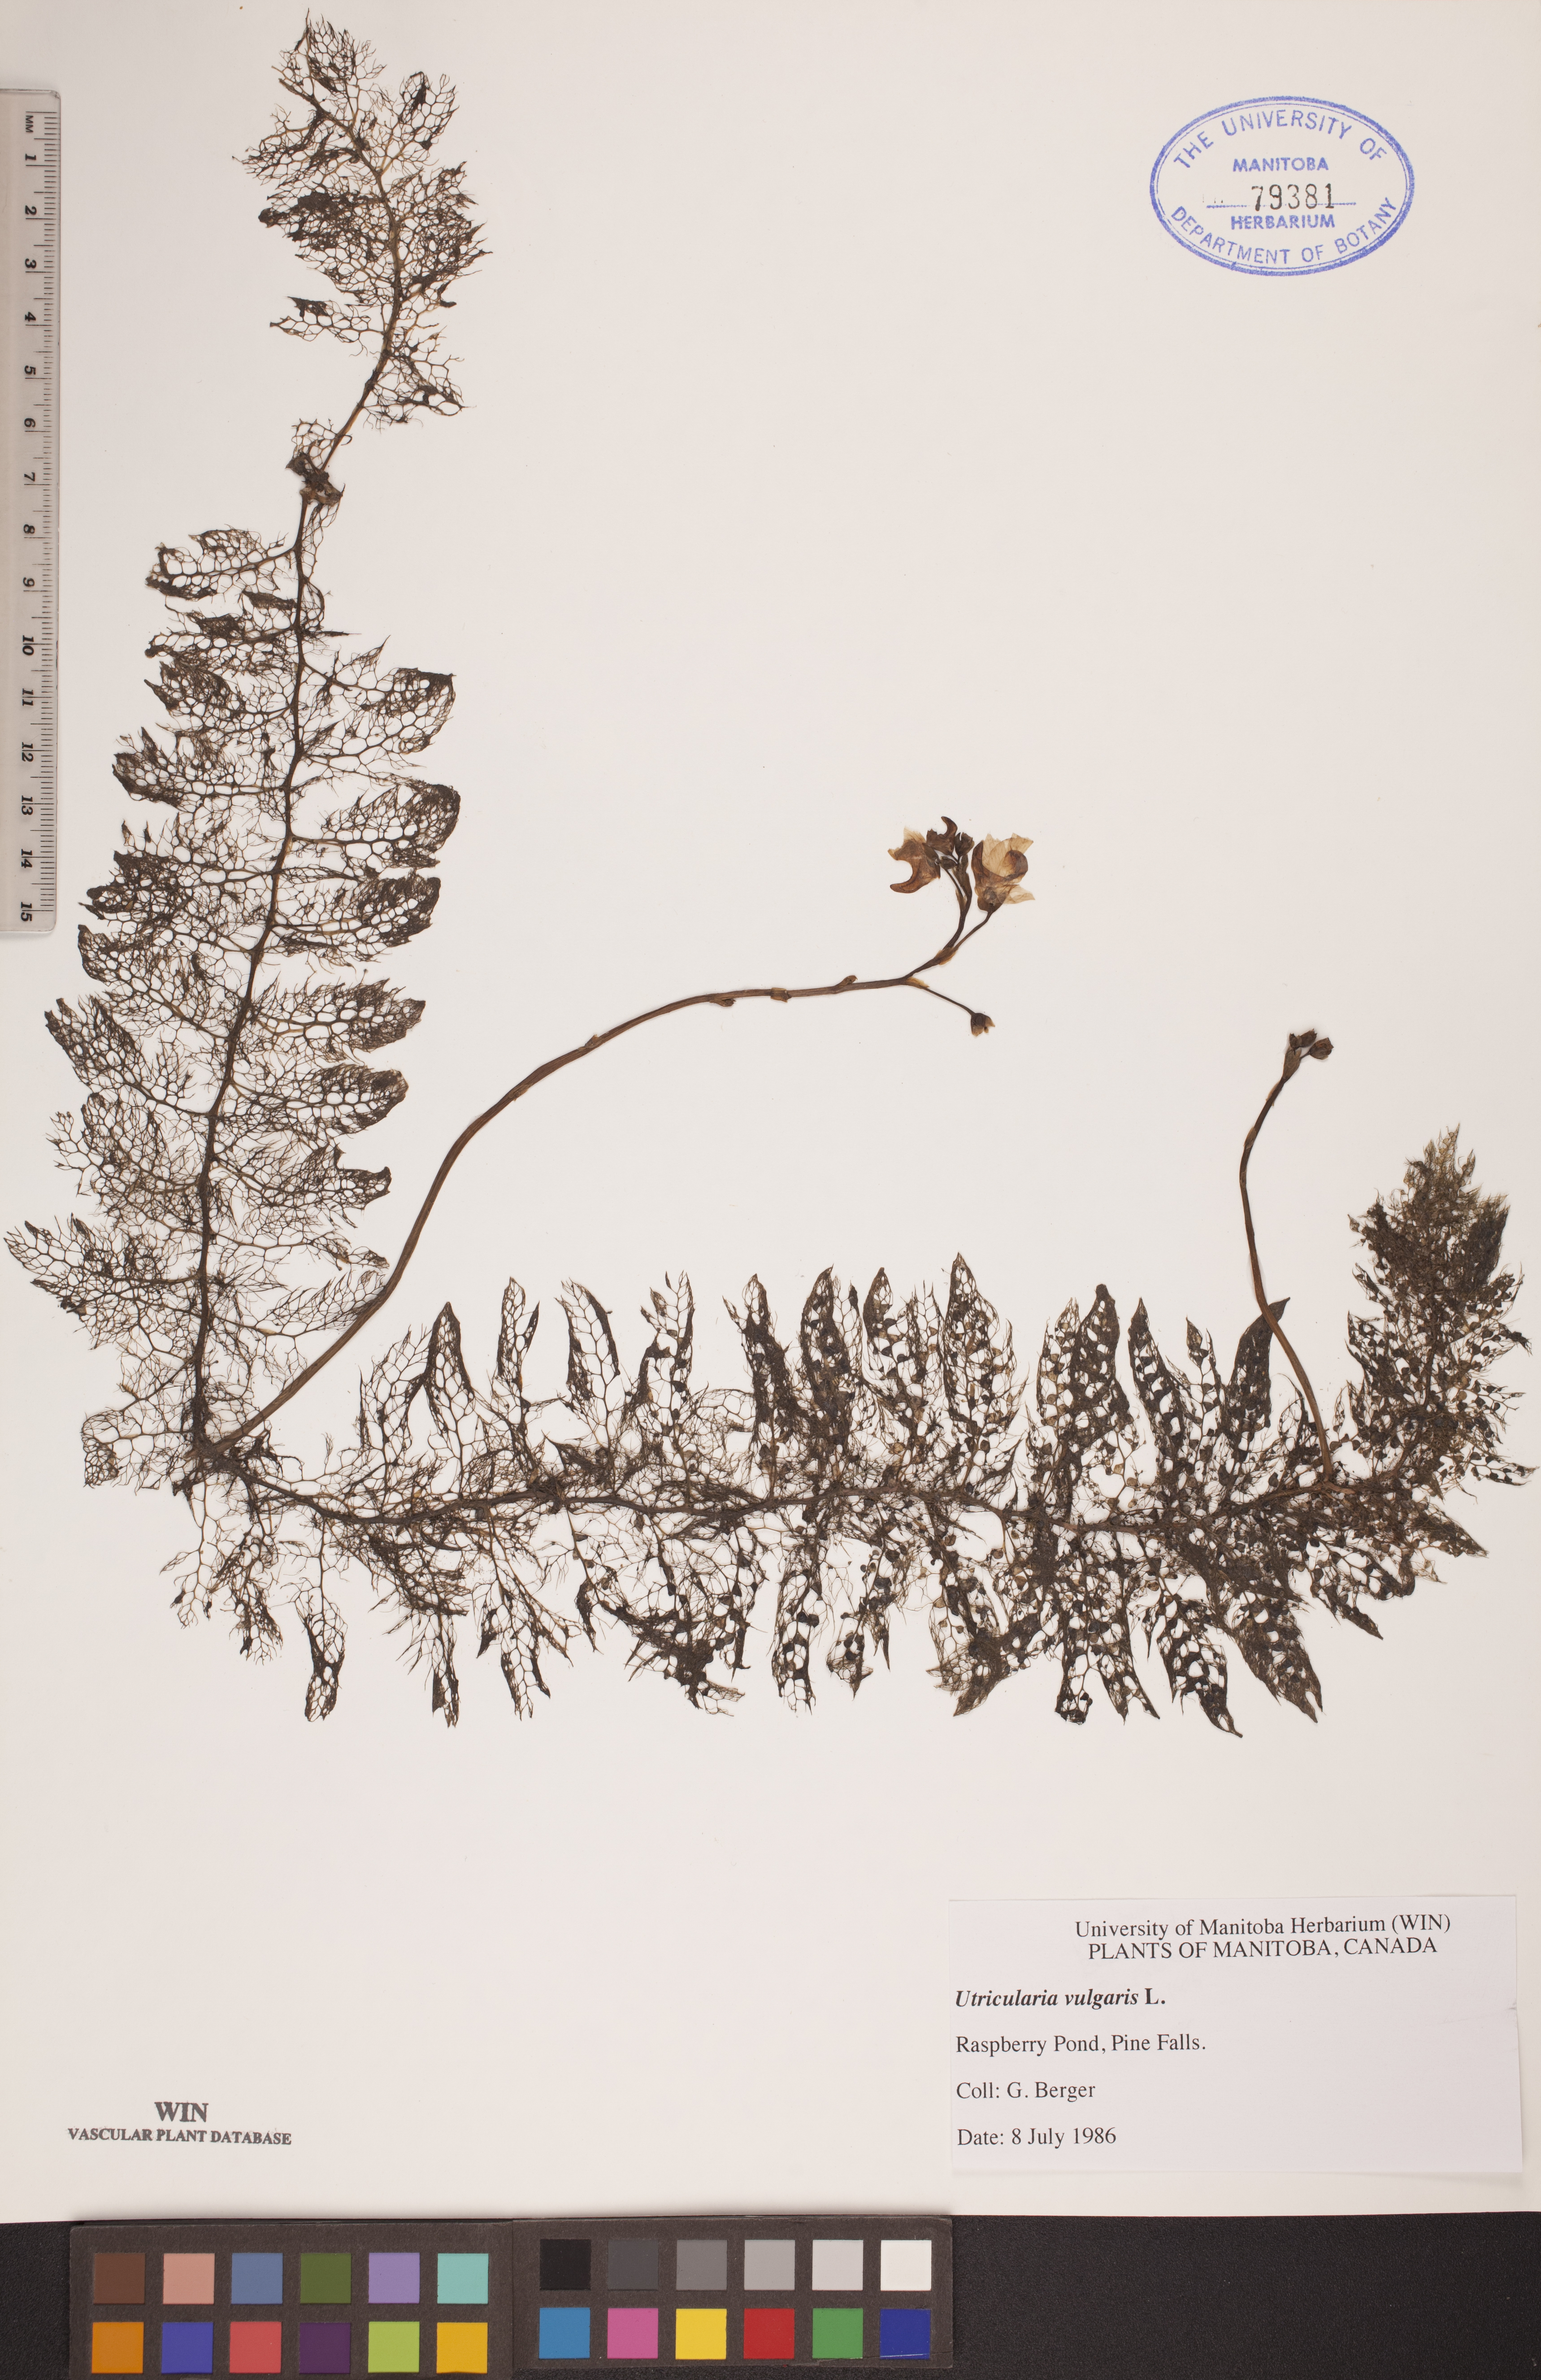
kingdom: Plantae
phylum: Tracheophyta
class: Magnoliopsida
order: Lamiales
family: Lentibulariaceae
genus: Utricularia
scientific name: Utricularia vulgaris
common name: Greater bladderwort
